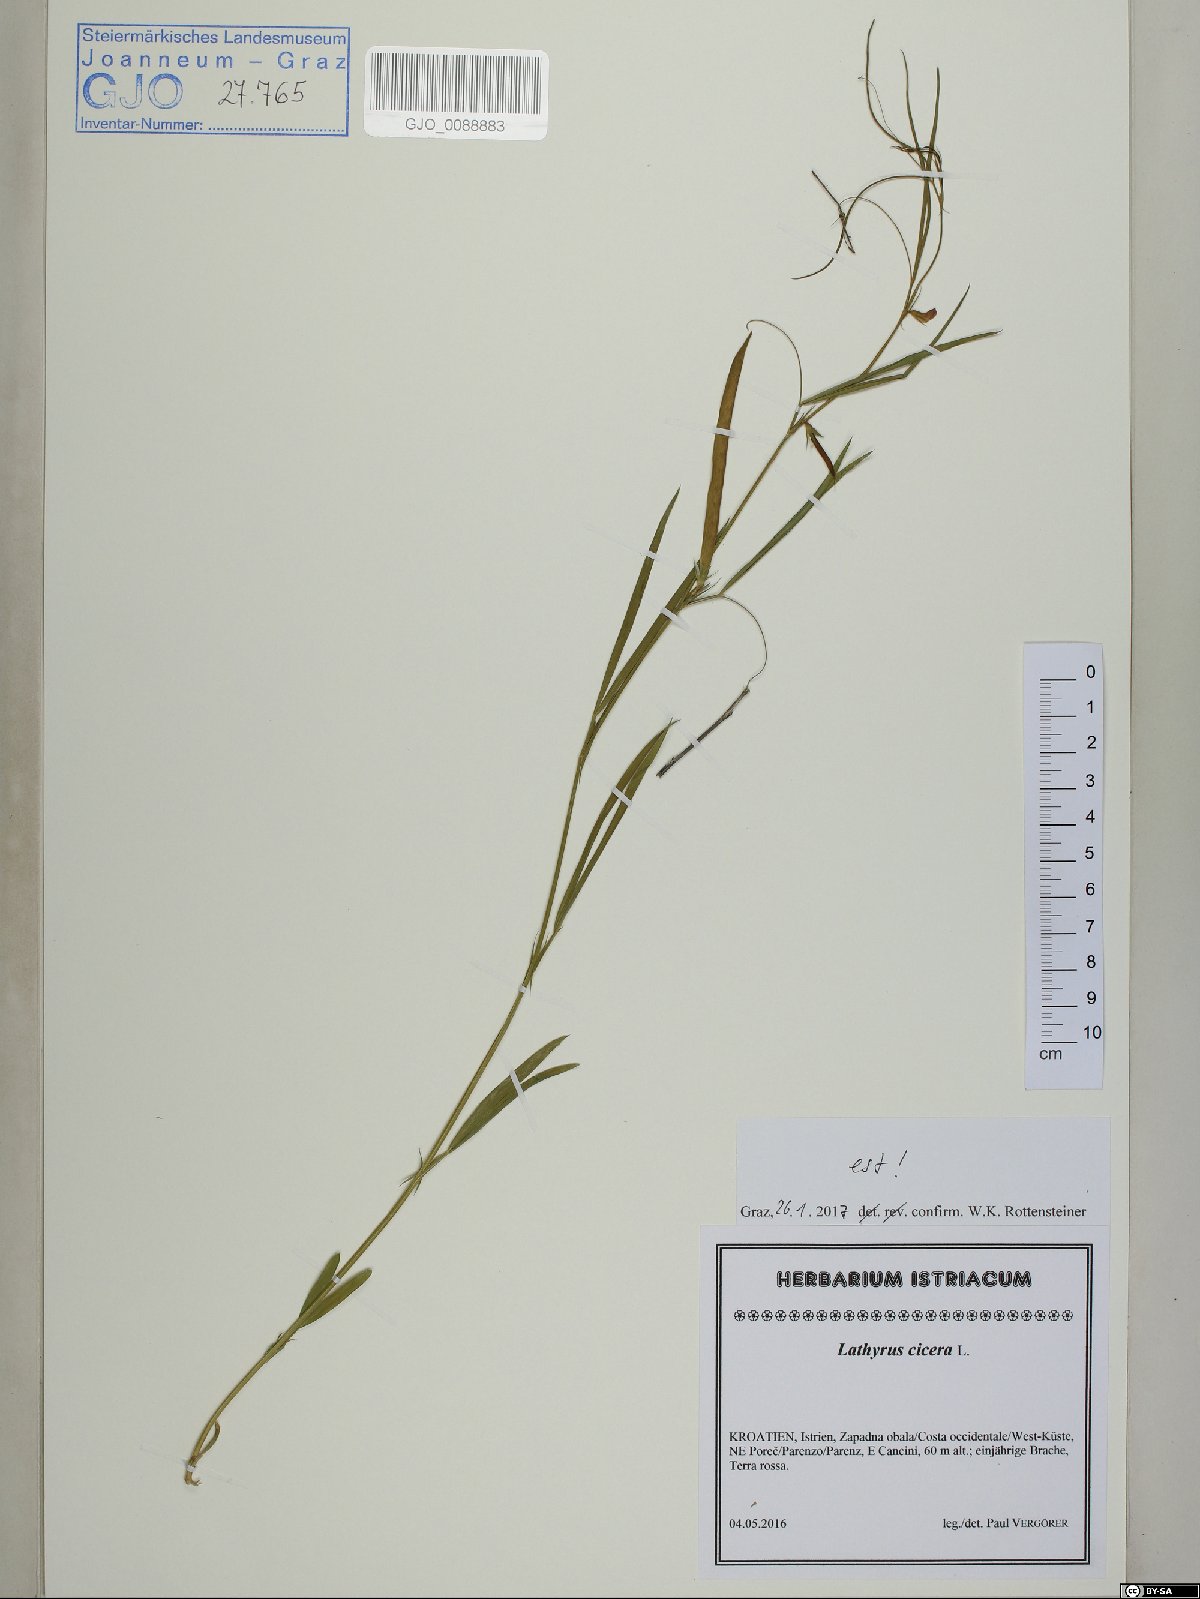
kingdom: Plantae
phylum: Tracheophyta
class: Magnoliopsida
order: Fabales
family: Fabaceae
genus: Lathyrus
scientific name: Lathyrus cicera
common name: Red vetchling
